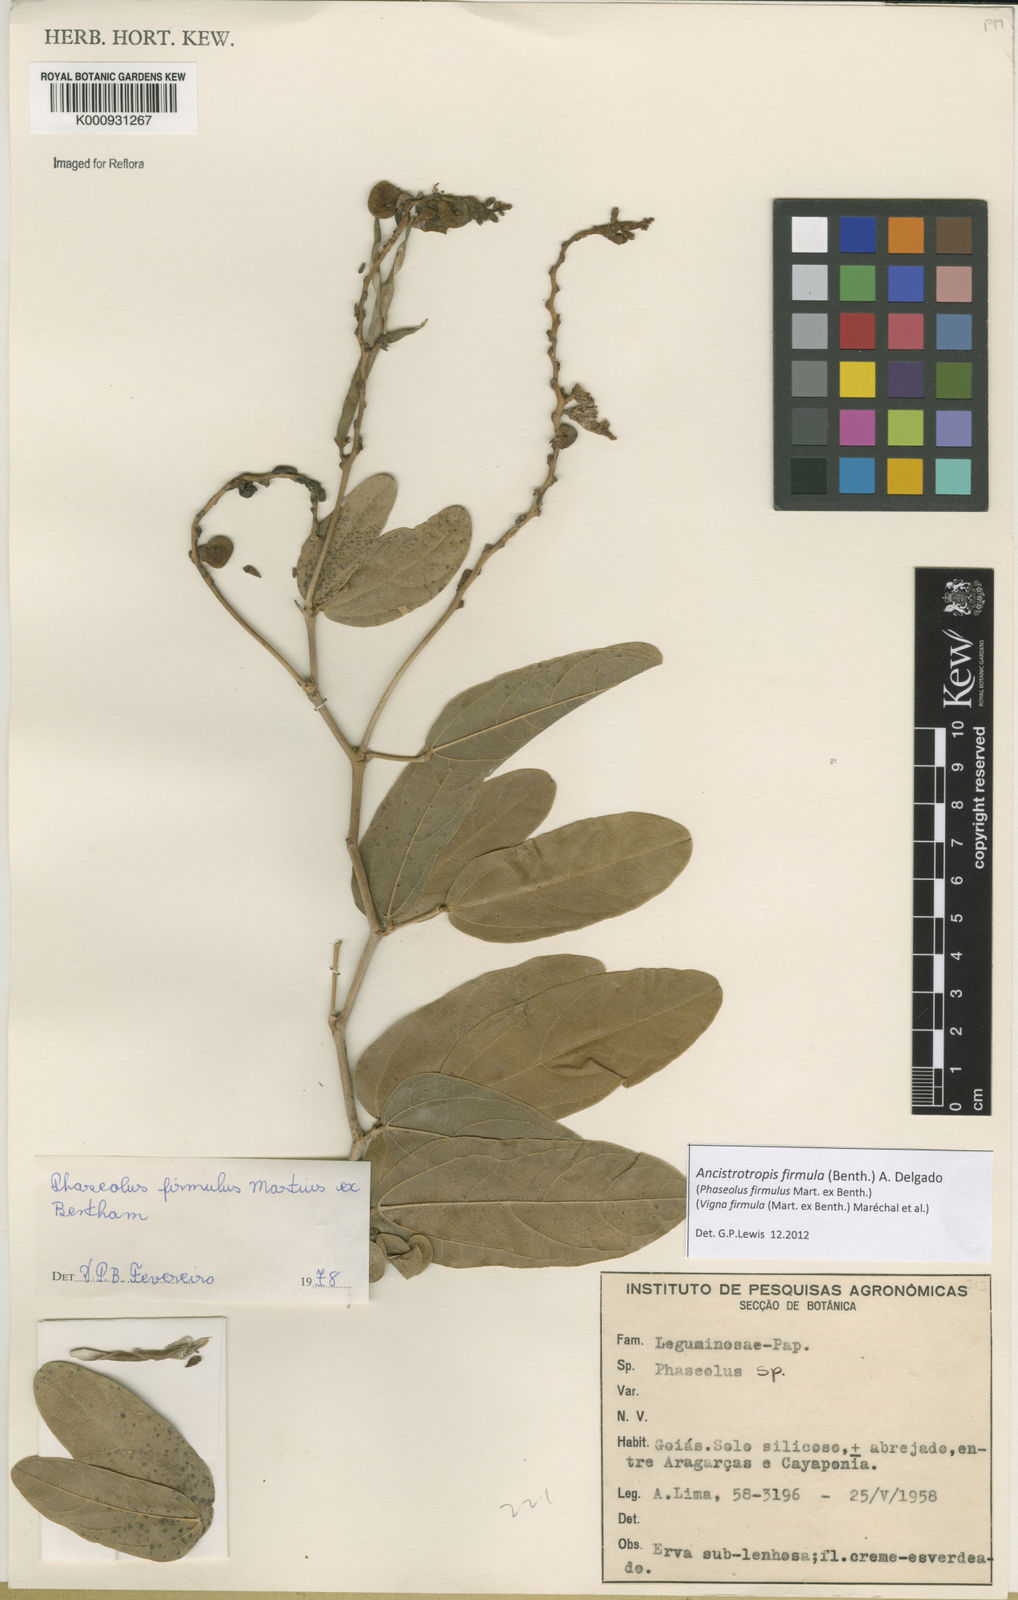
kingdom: Plantae
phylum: Tracheophyta
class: Magnoliopsida
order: Fabales
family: Fabaceae
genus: Ancistrotropis
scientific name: Ancistrotropis firmula
